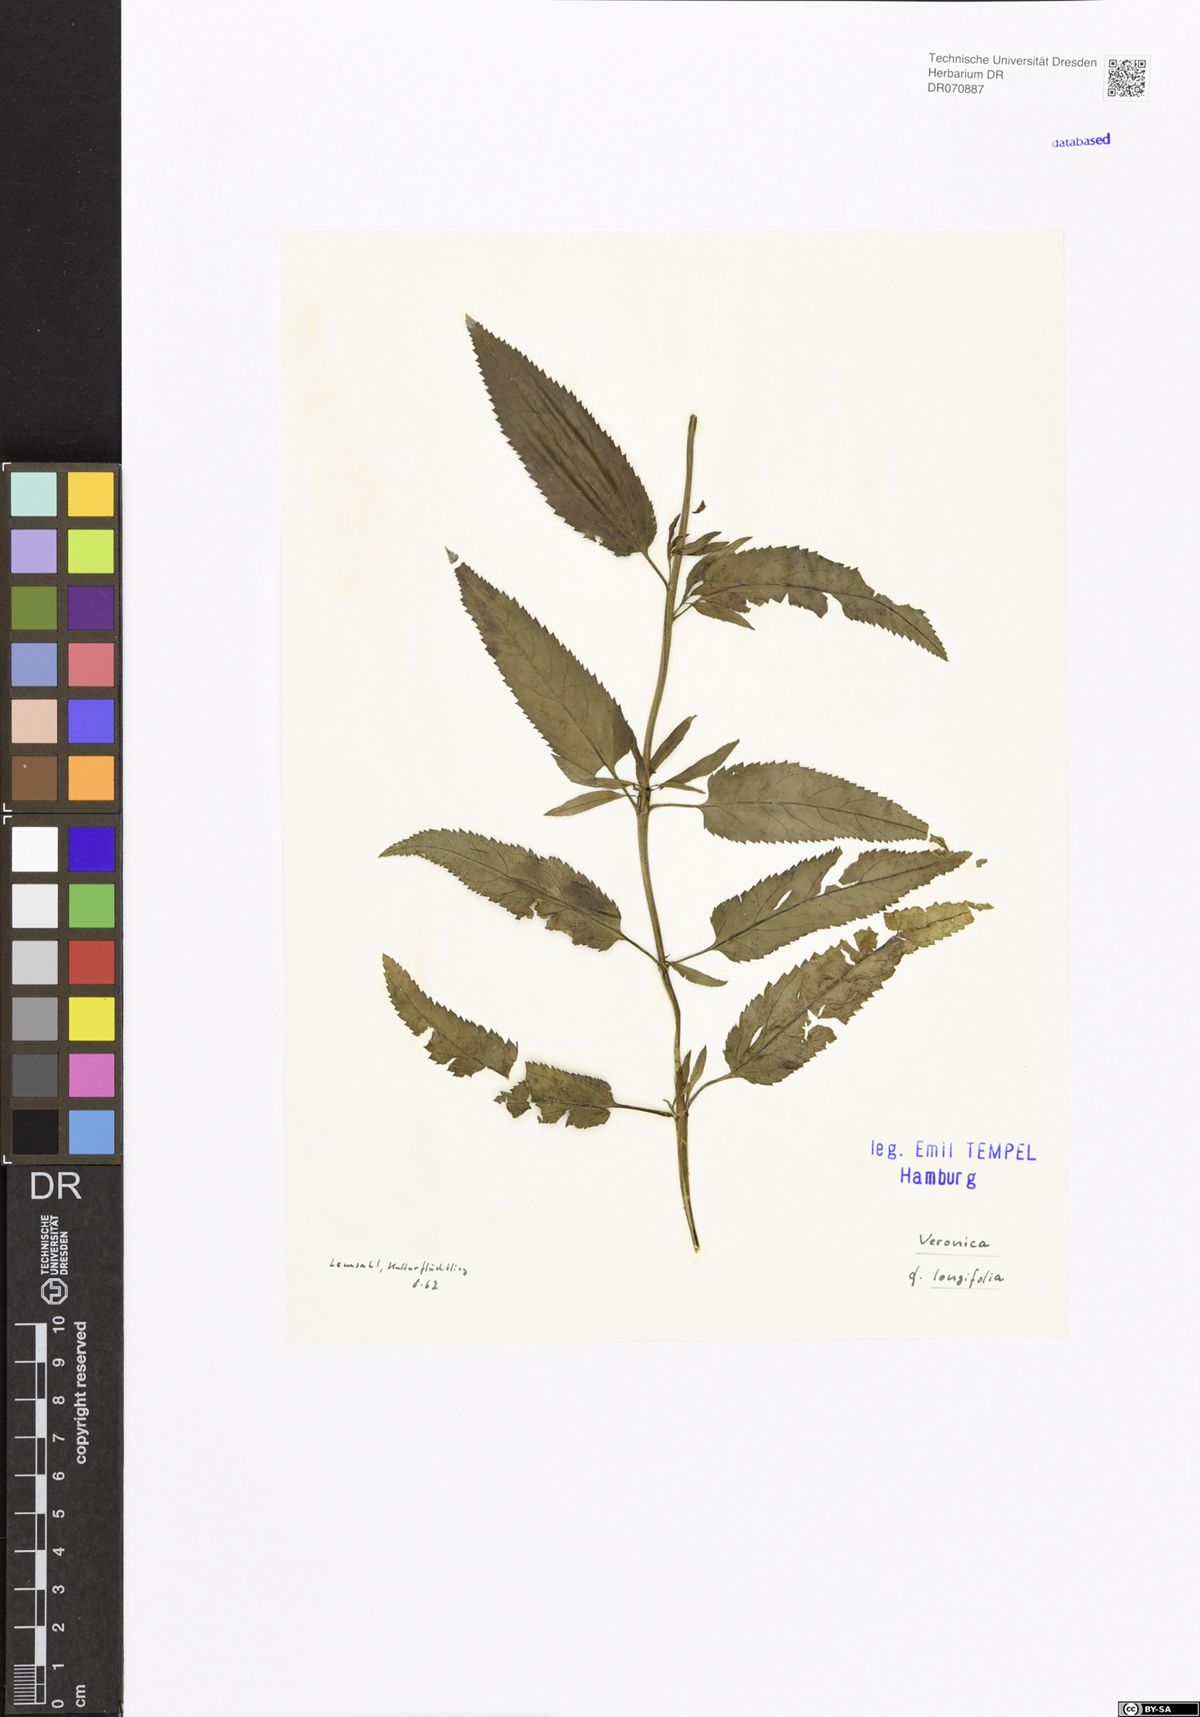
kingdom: Plantae
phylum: Tracheophyta
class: Magnoliopsida
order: Lamiales
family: Plantaginaceae
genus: Veronica
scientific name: Veronica longifolia
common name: Garden speedwell
